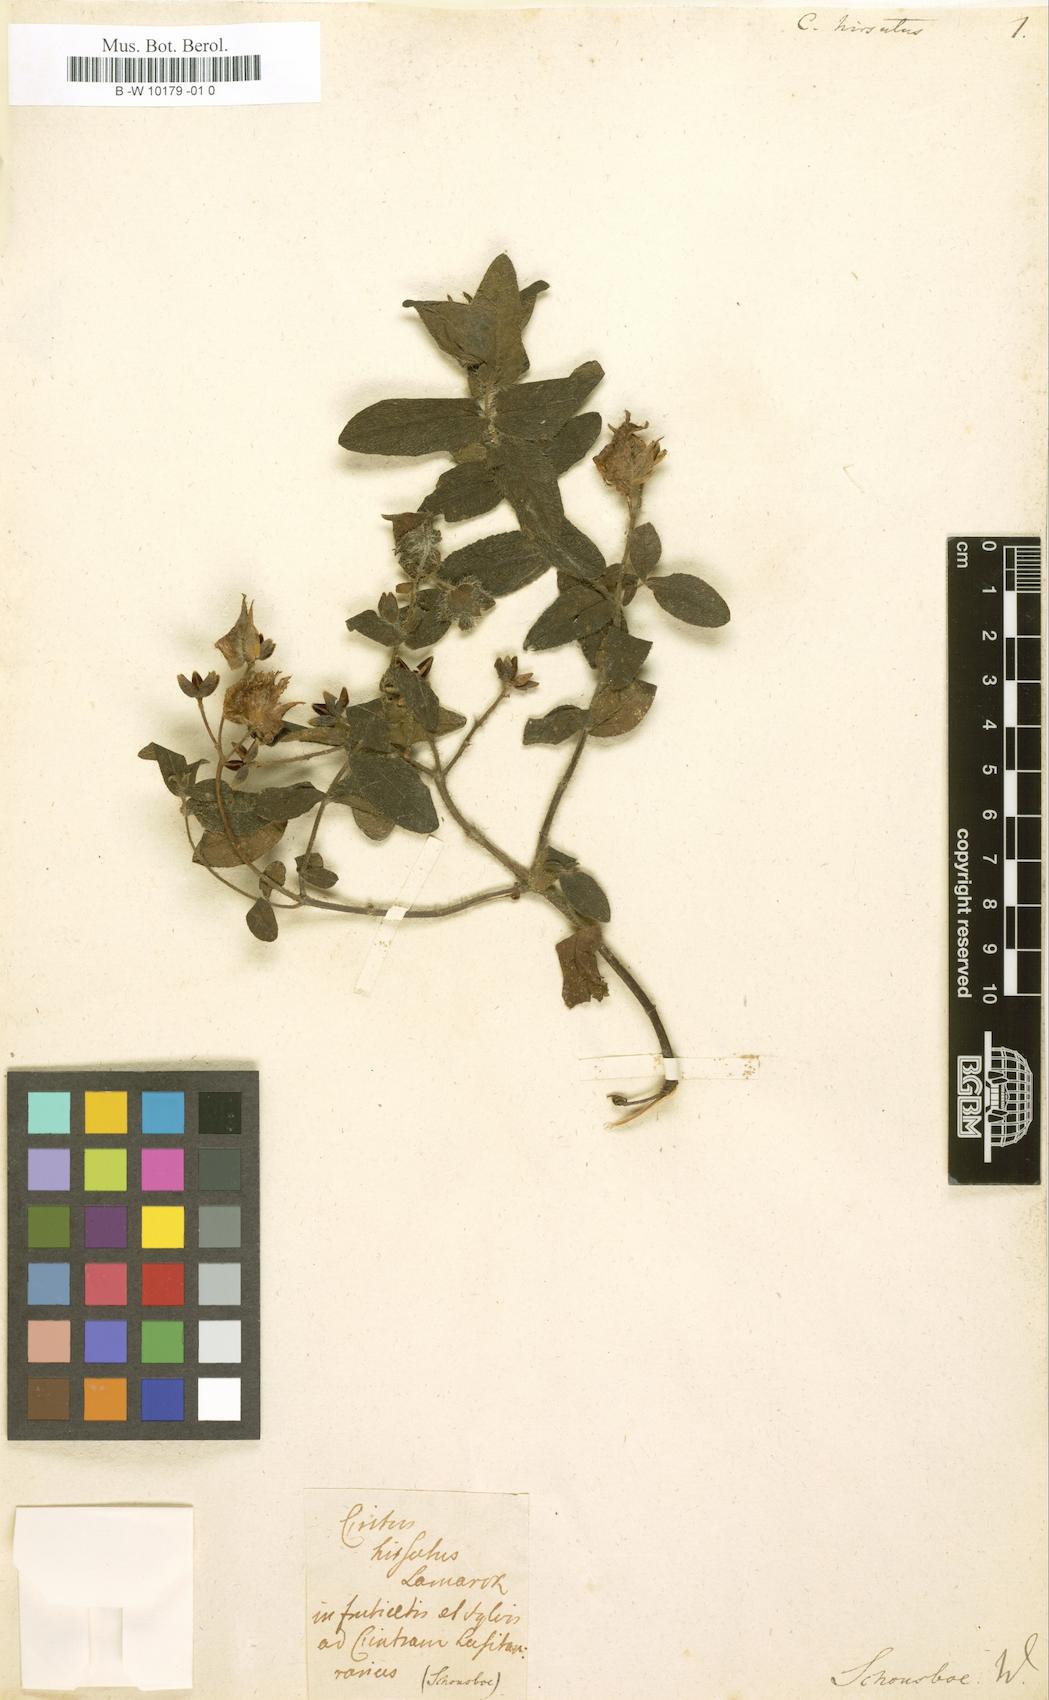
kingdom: Plantae
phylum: Tracheophyta
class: Magnoliopsida
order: Malvales
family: Cistaceae
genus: Helianthemum
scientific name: Helianthemum nummularium
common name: Common rock-rose
